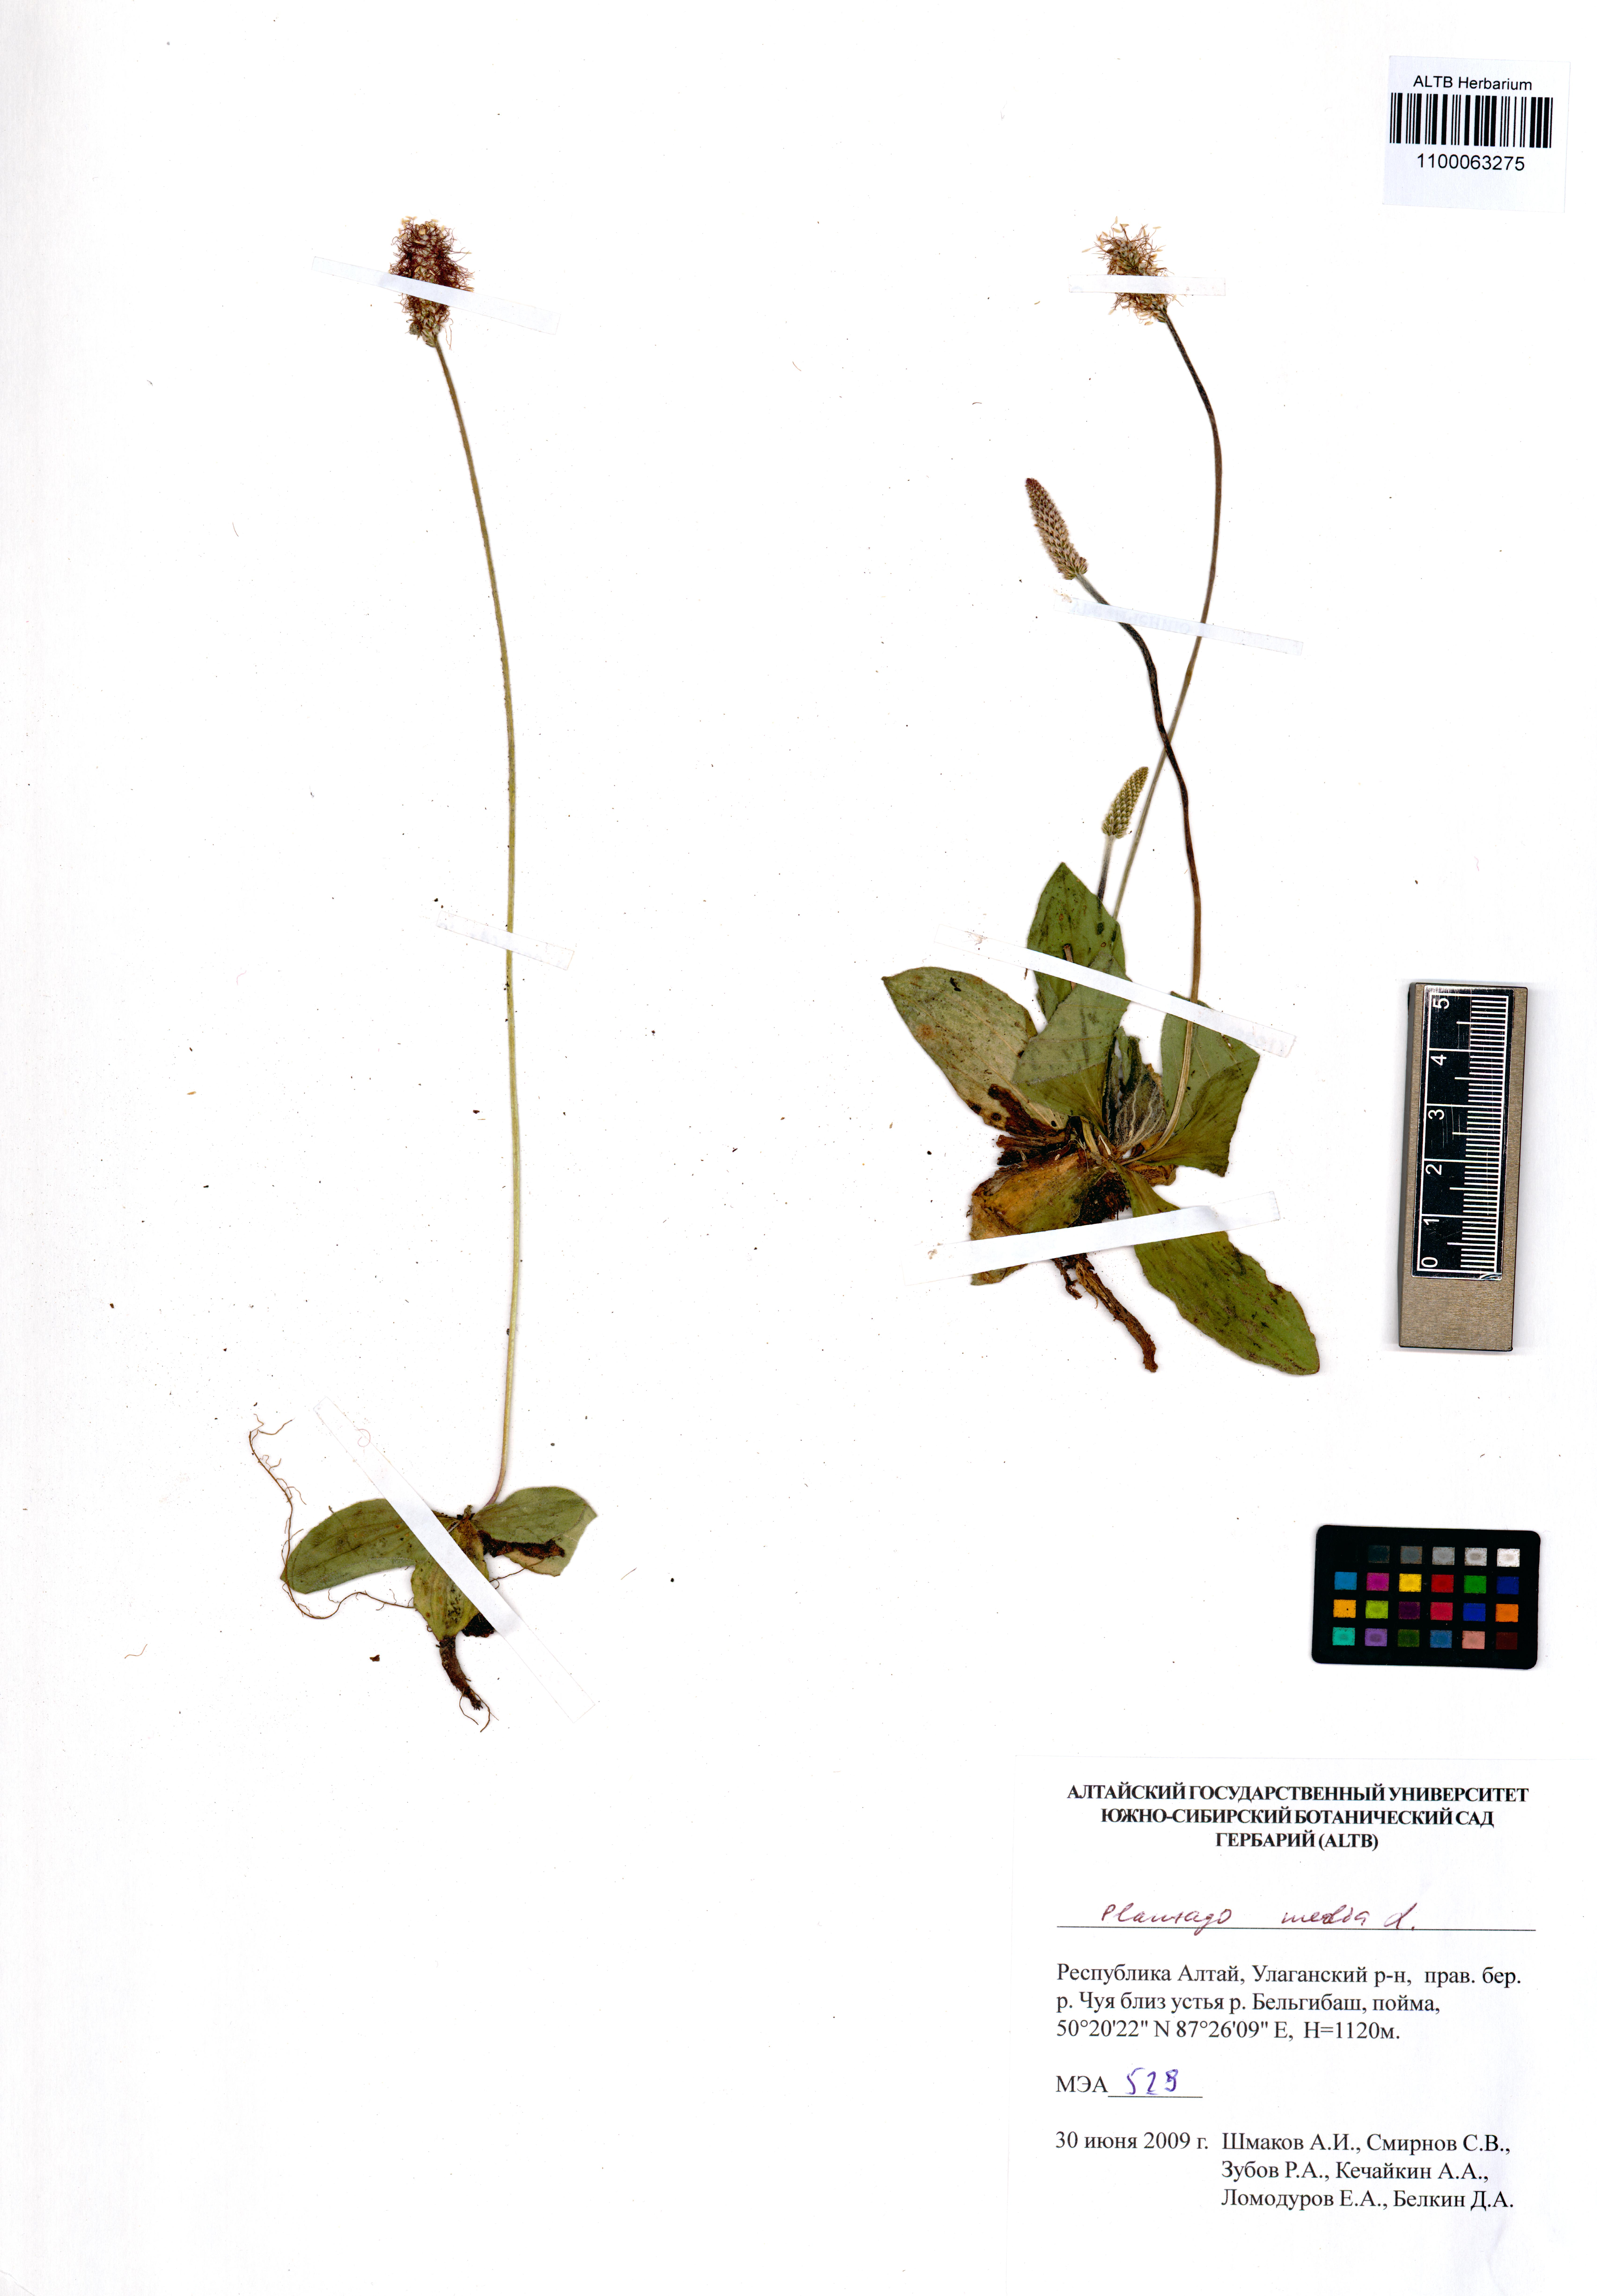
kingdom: Plantae
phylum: Tracheophyta
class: Magnoliopsida
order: Lamiales
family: Plantaginaceae
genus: Plantago
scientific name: Plantago media
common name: Hoary plantain
